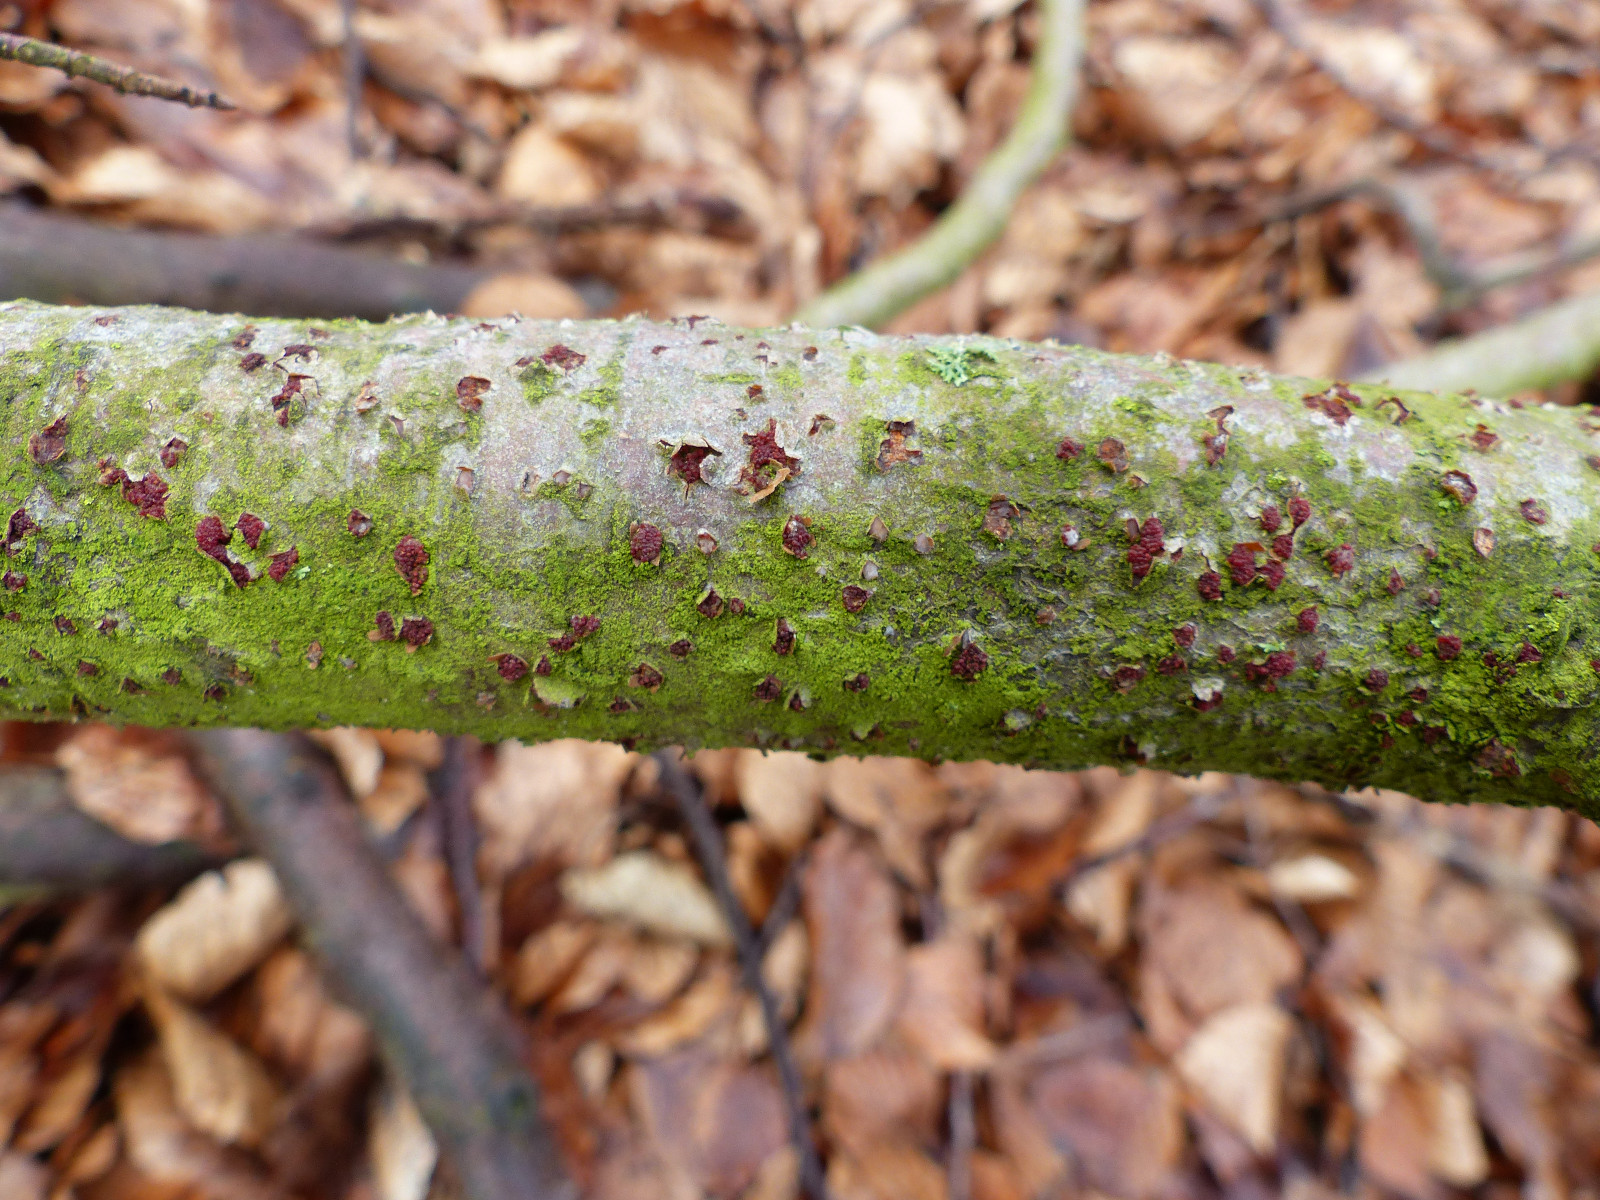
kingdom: Fungi
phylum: Ascomycota
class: Sordariomycetes
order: Hypocreales
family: Nectriaceae
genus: Neonectria
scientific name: Neonectria coccinea
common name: bøgebark-cinnobersvamp
